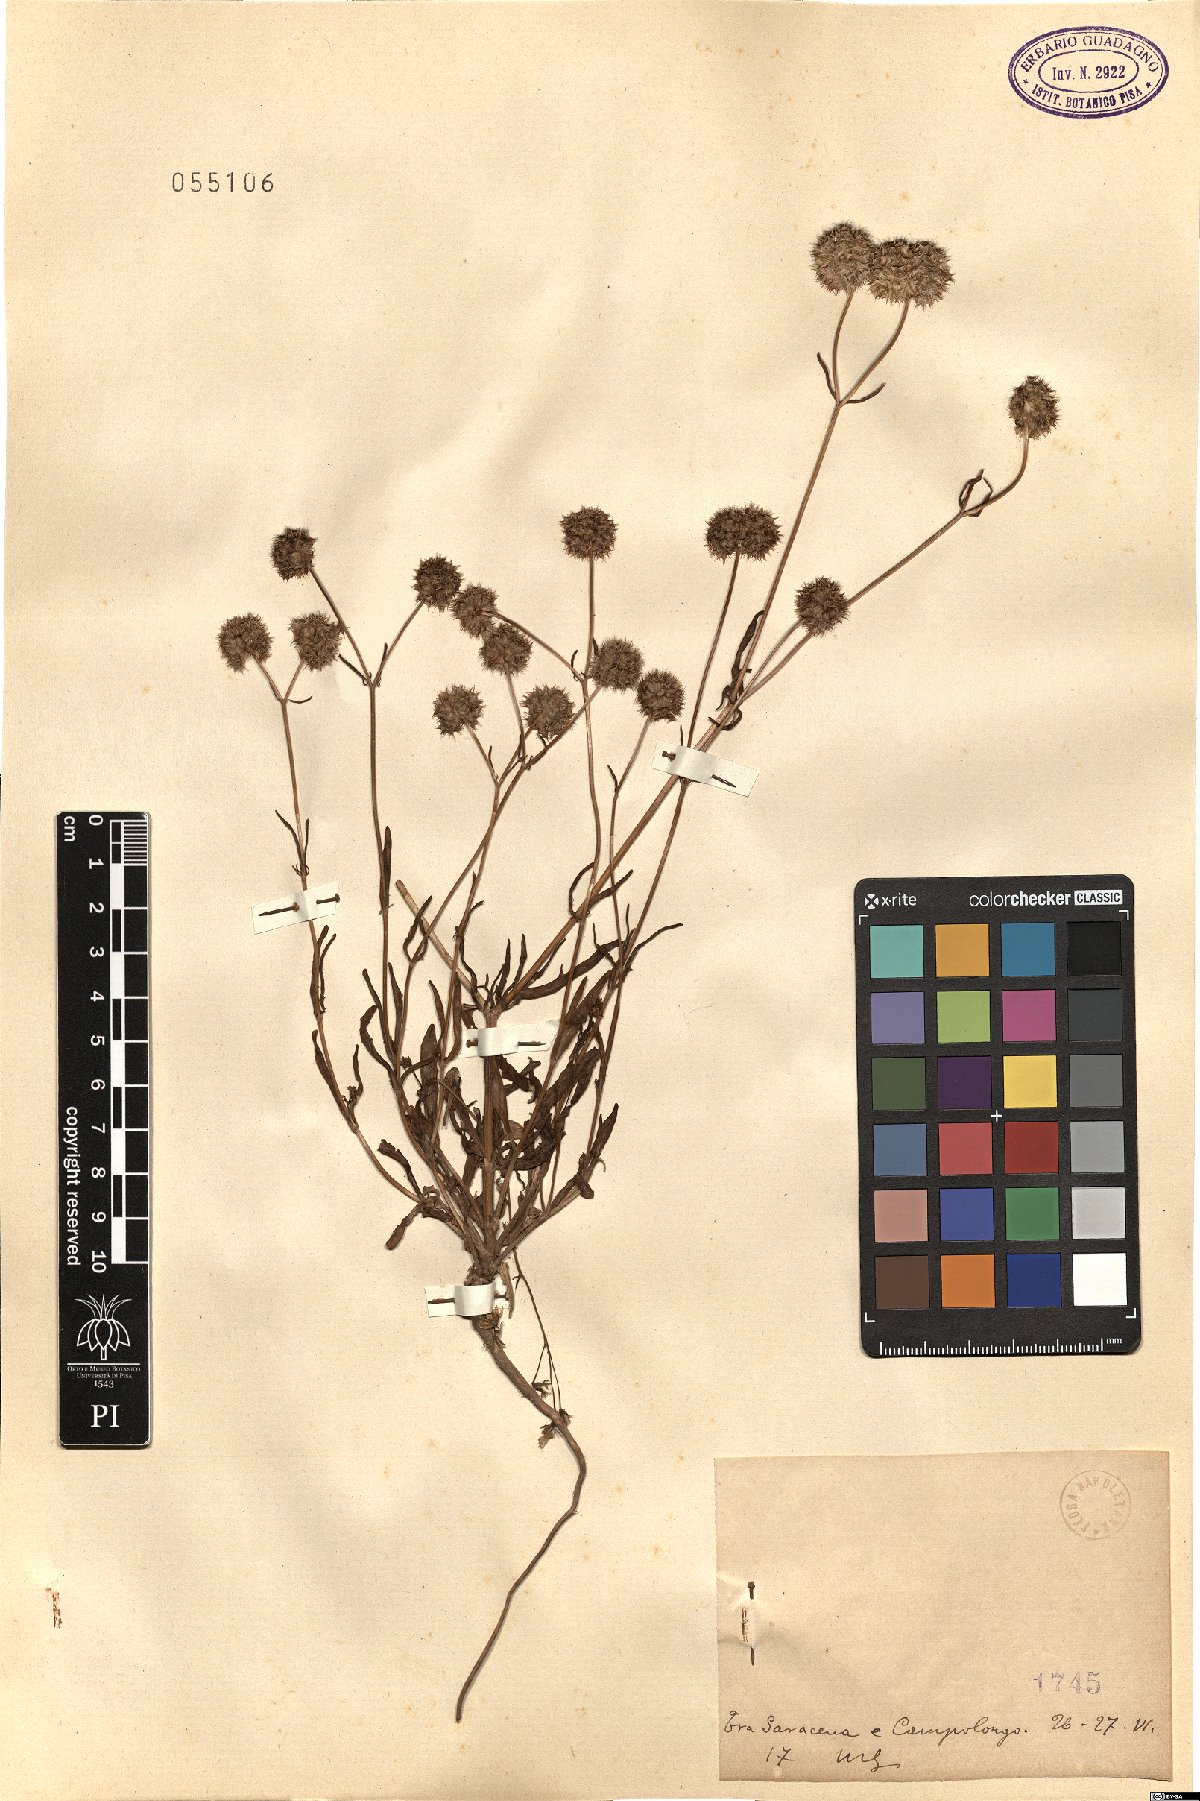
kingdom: Plantae
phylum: Tracheophyta
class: Magnoliopsida
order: Dipsacales
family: Caprifoliaceae
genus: Valerianella
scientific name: Valerianella
